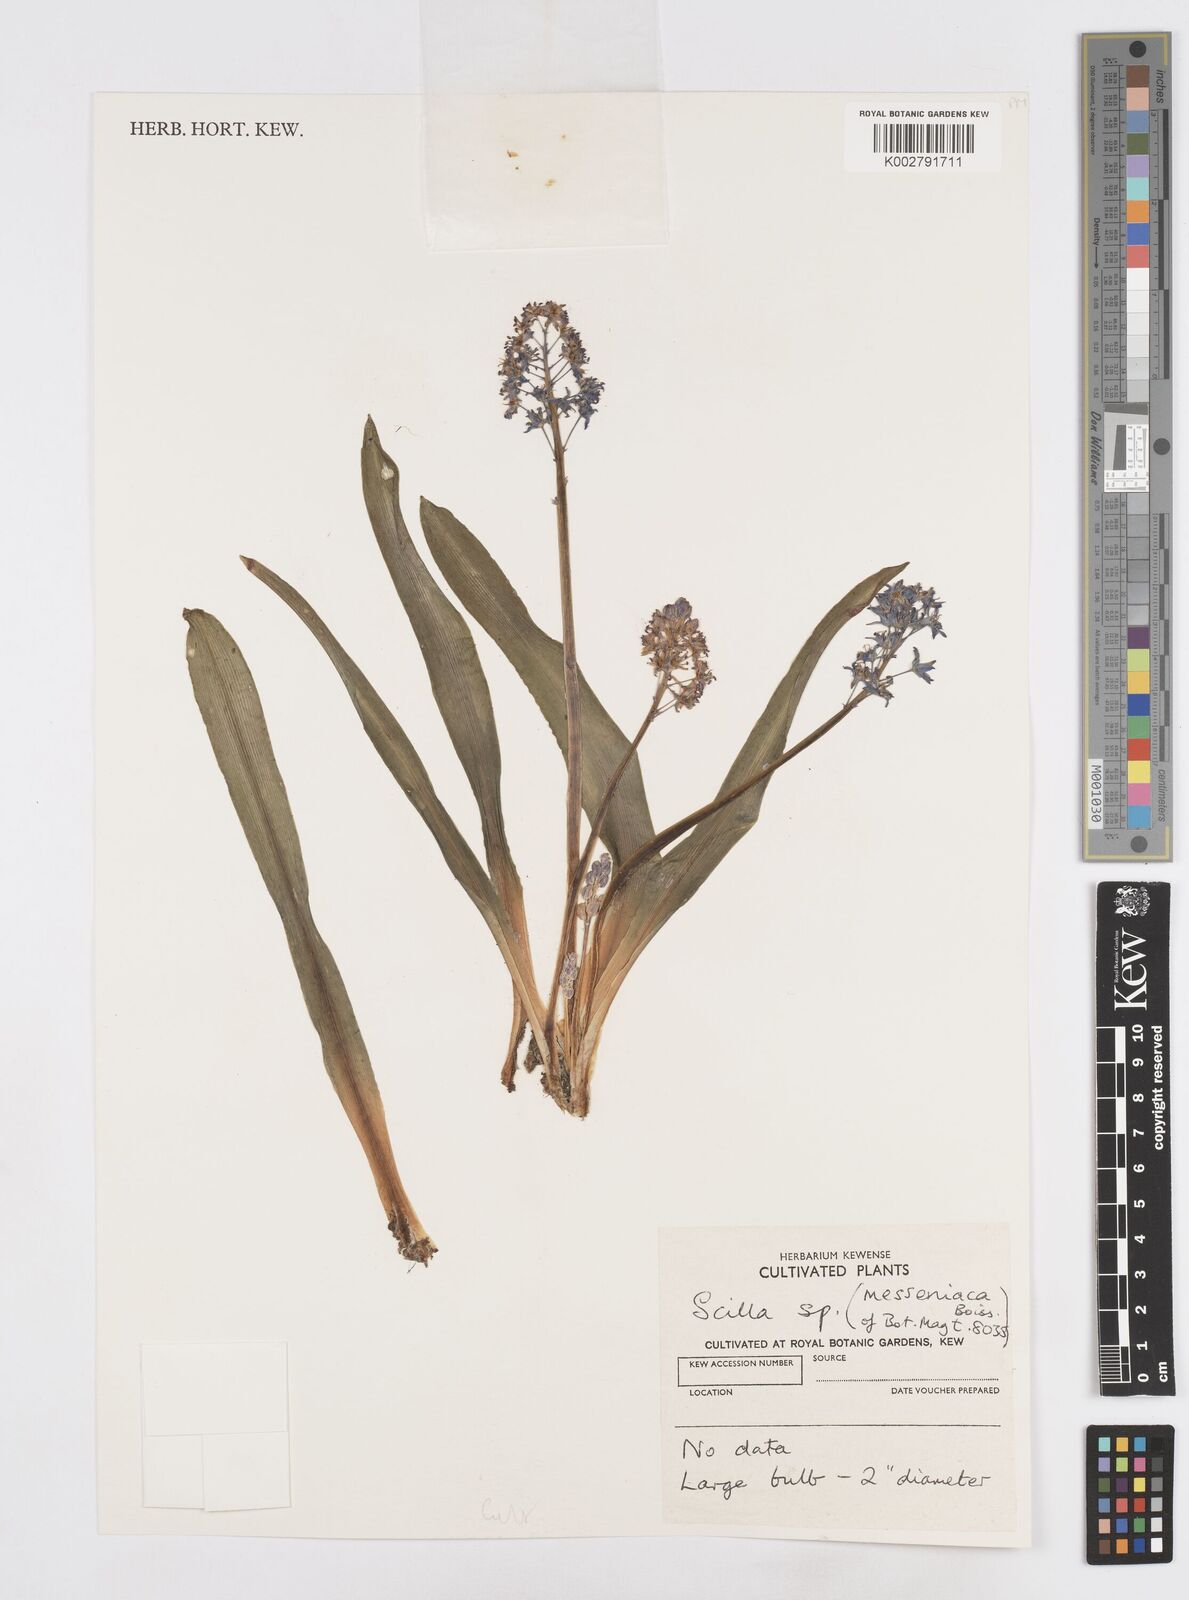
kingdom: Plantae
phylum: Tracheophyta
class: Liliopsida
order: Asparagales
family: Asparagaceae
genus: Scilla
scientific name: Scilla messeniaca
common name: Greek squill
